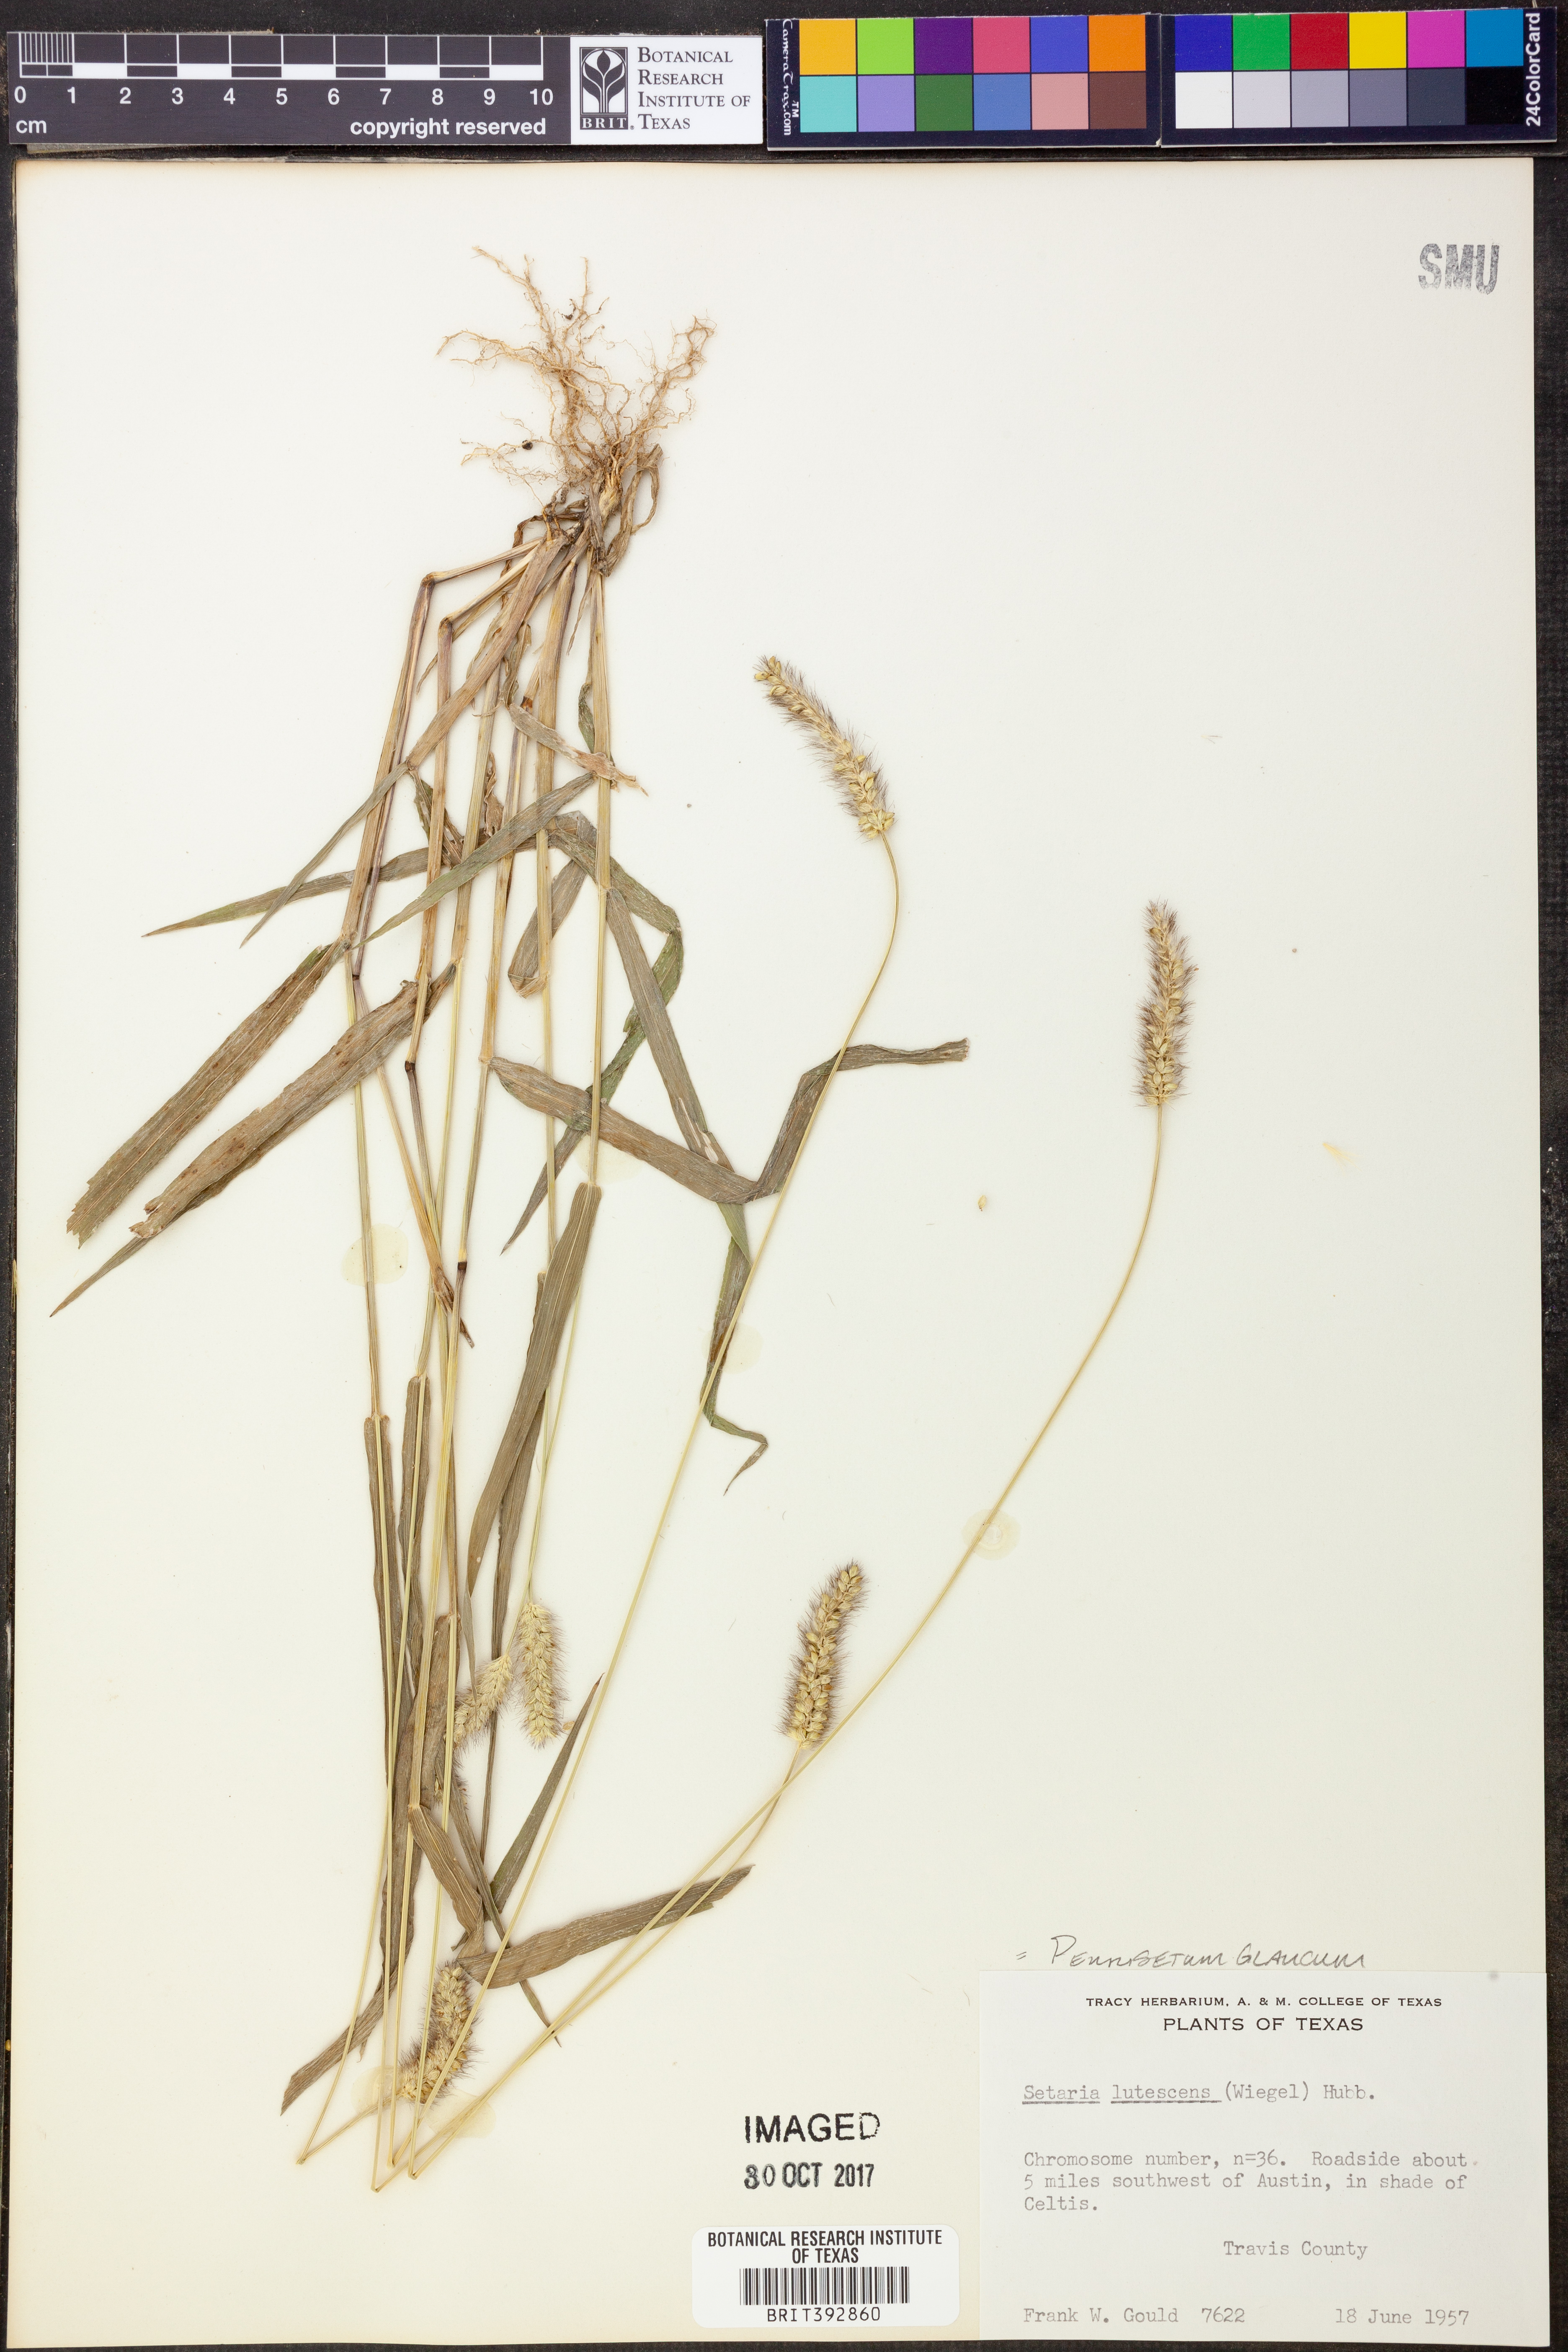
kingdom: Plantae
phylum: Tracheophyta
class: Liliopsida
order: Poales
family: Poaceae
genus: Cenchrus
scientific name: Cenchrus americanus
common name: Pearl millet
